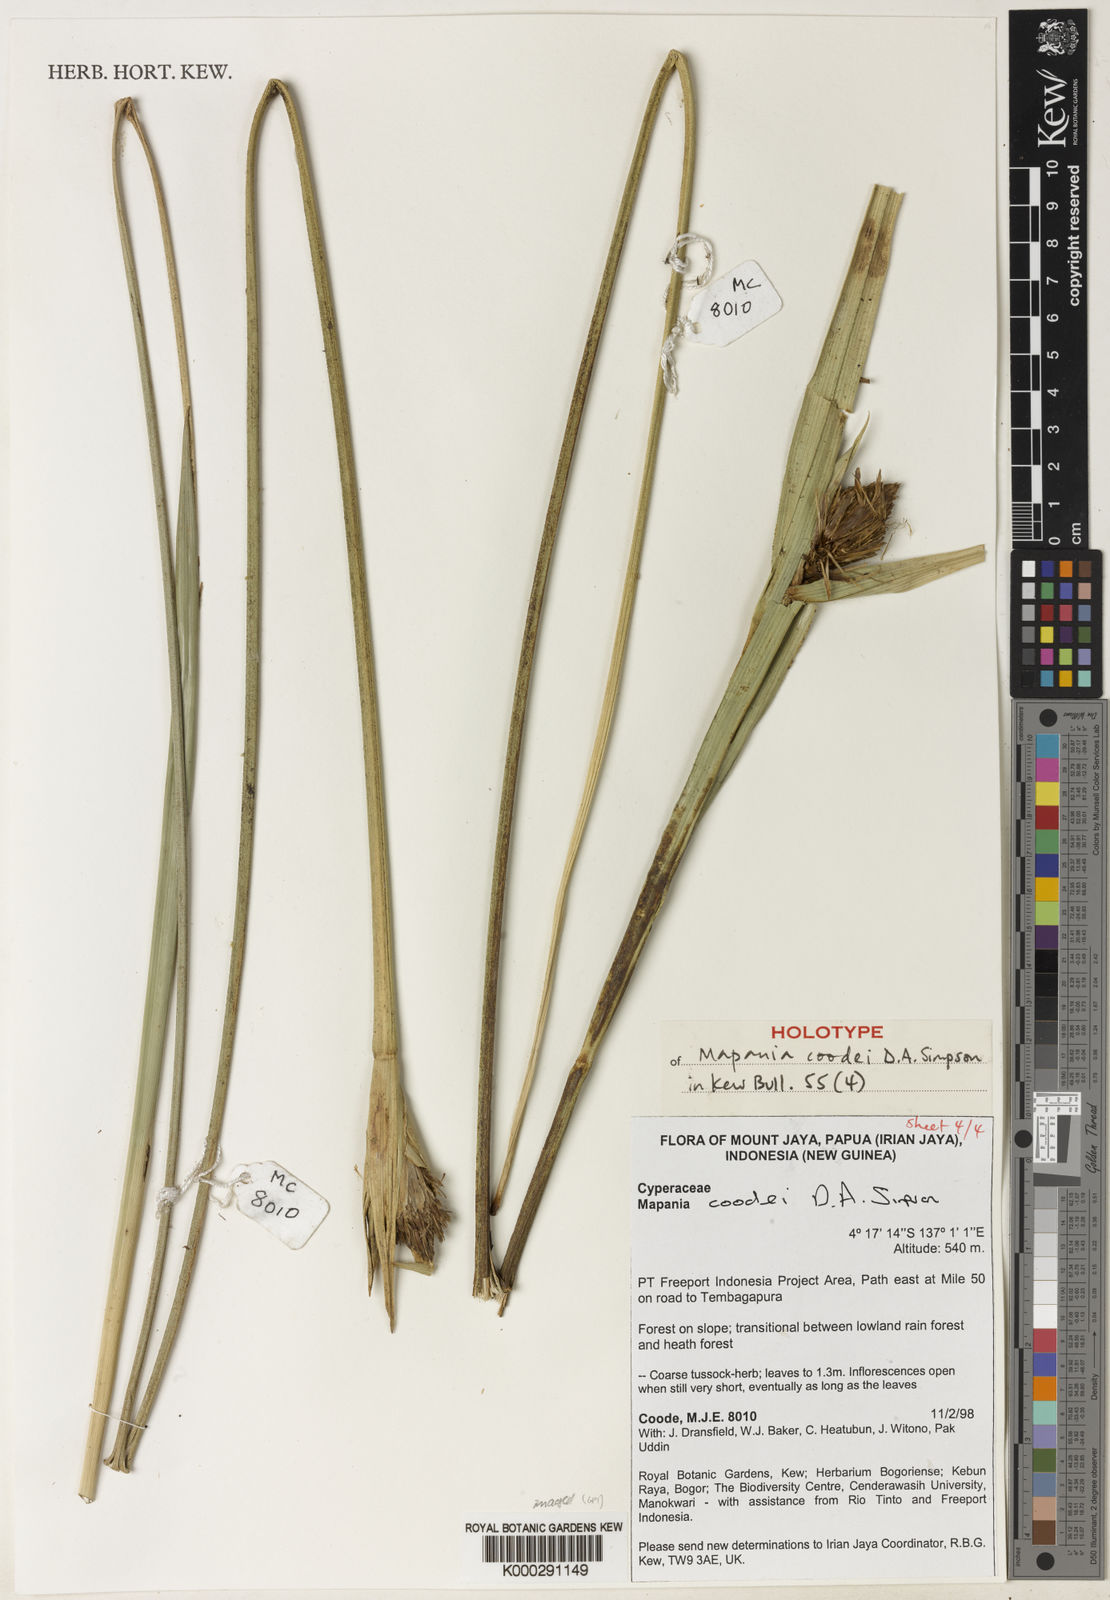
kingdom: Plantae
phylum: Tracheophyta
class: Liliopsida
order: Poales
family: Cyperaceae
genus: Mapania
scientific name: Mapania coodei
